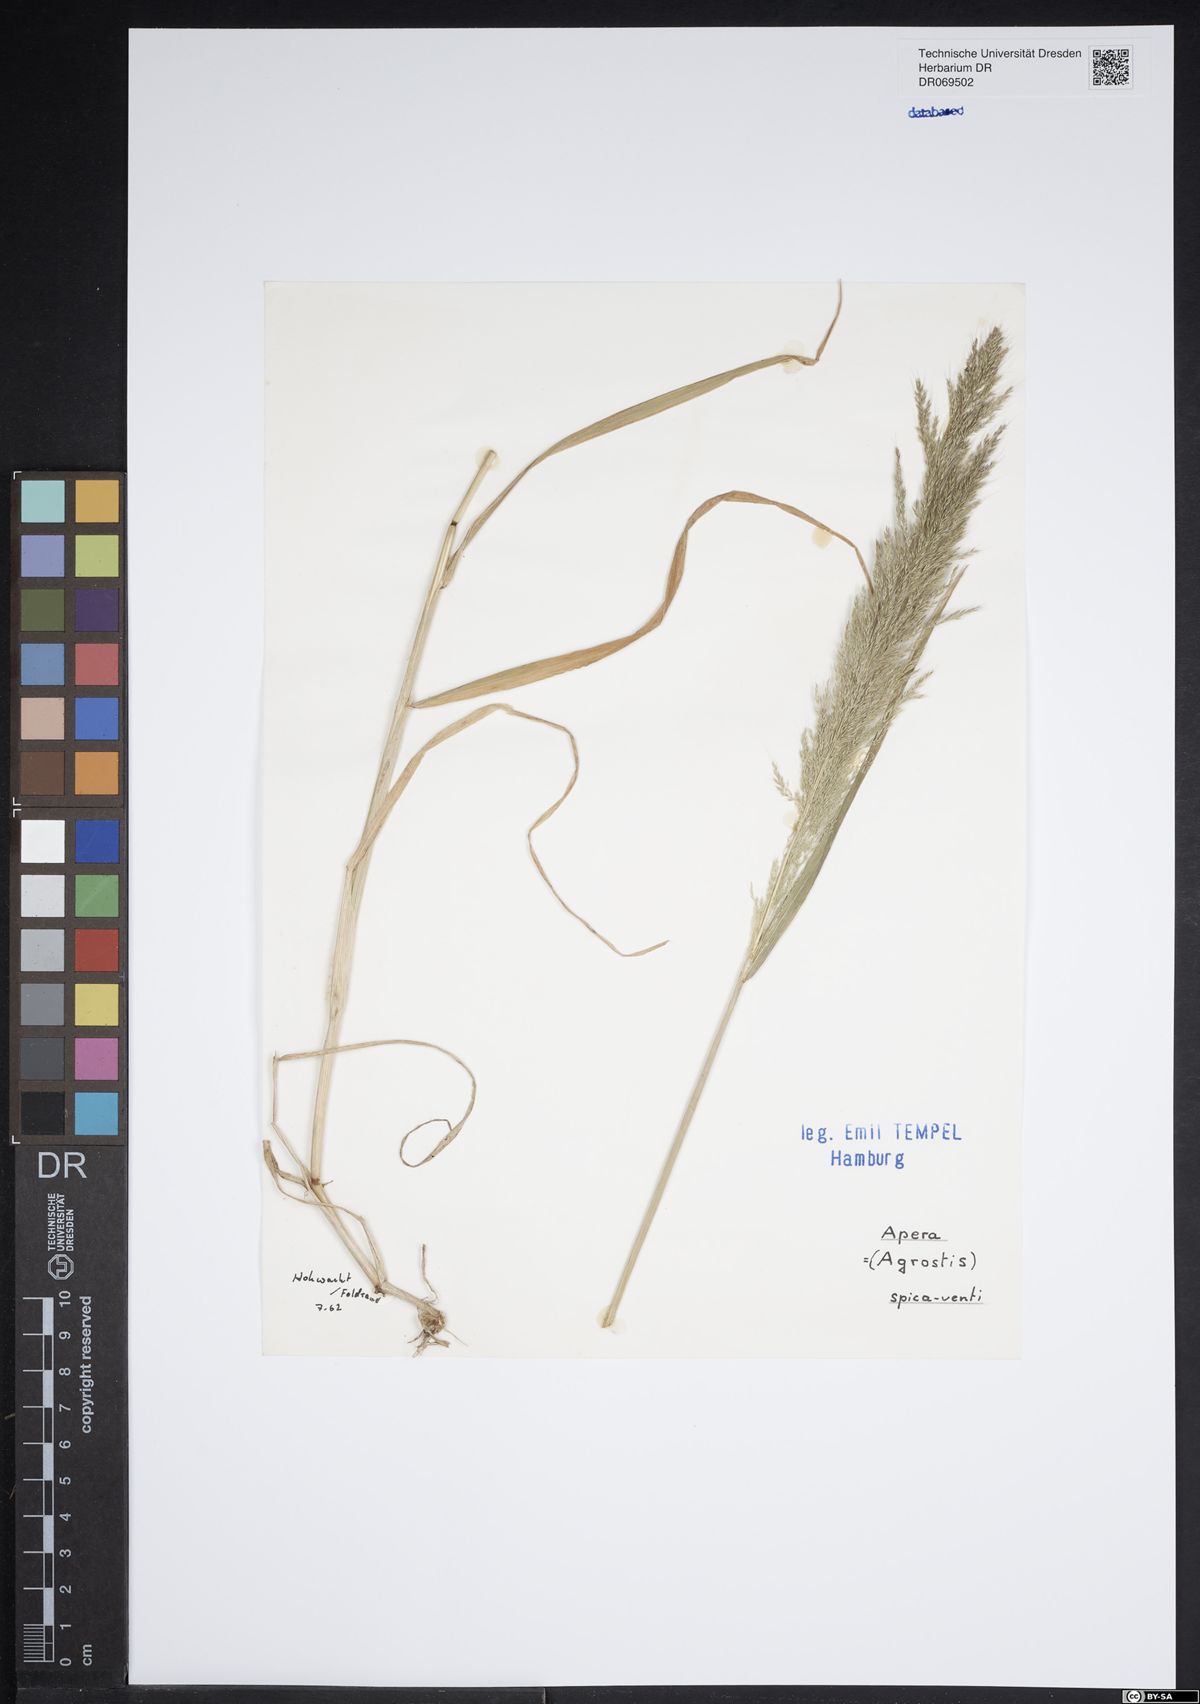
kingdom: Plantae
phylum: Tracheophyta
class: Liliopsida
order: Poales
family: Poaceae
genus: Apera
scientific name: Apera spica-venti
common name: Loose silky-bent
